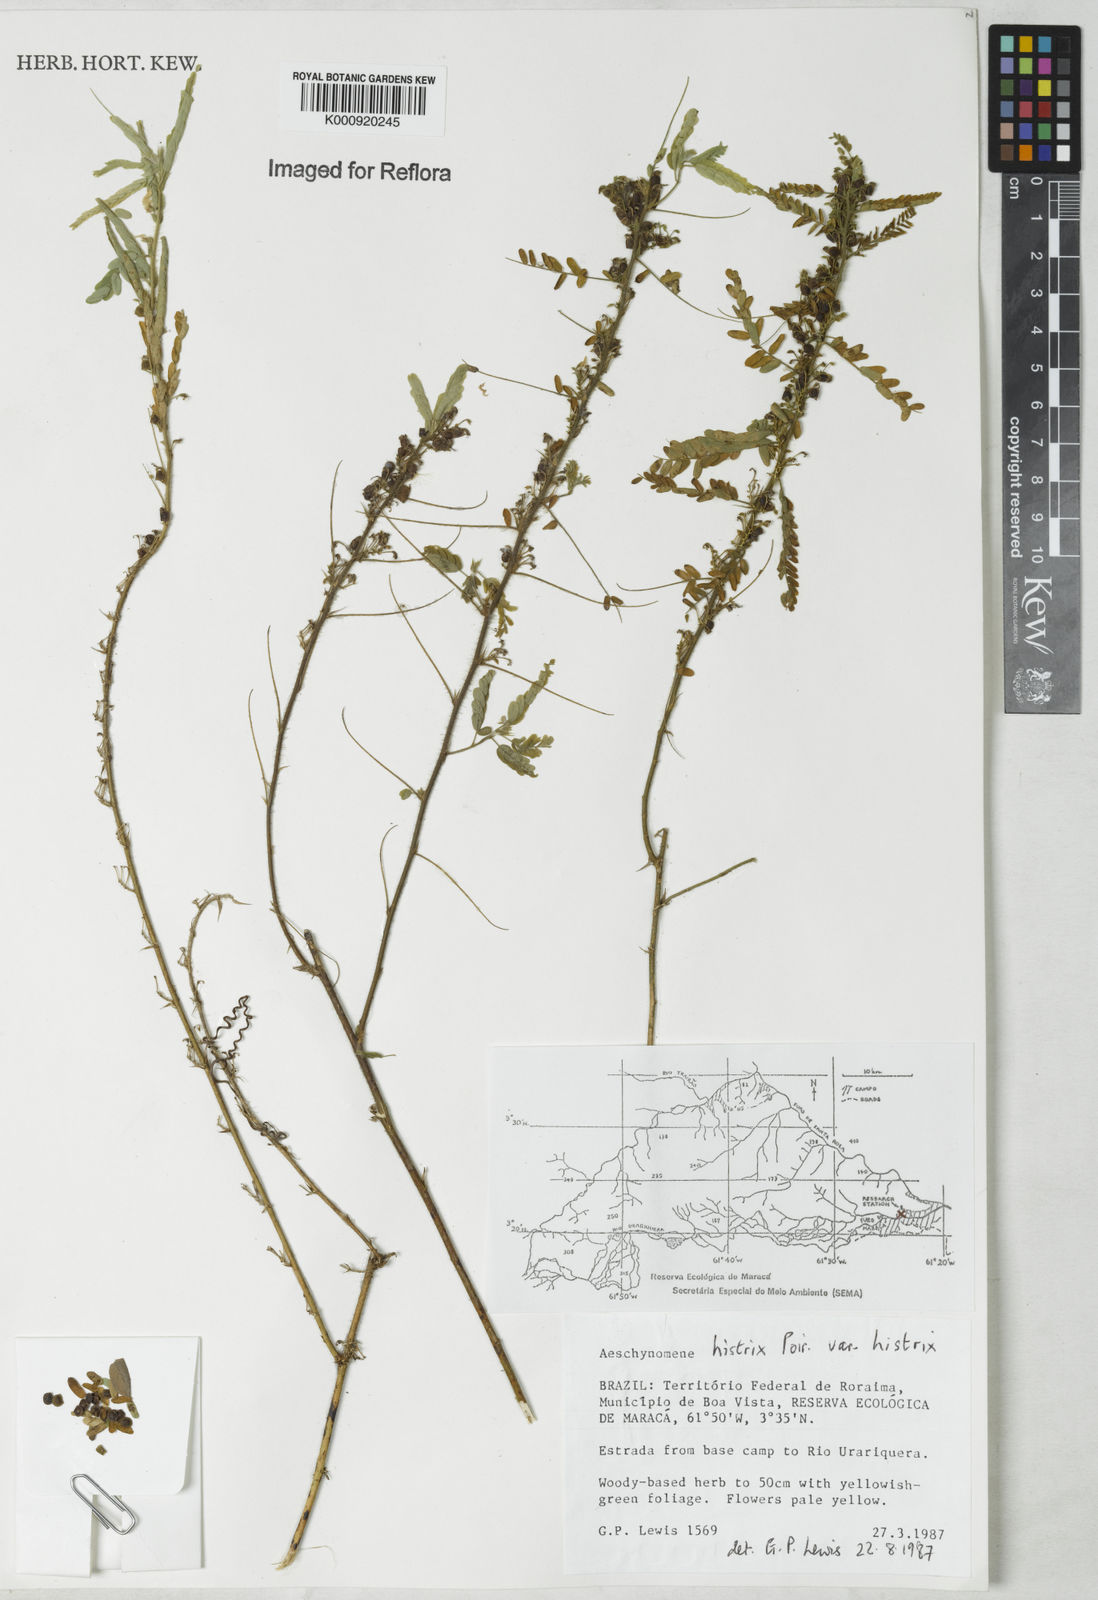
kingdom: Plantae
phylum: Tracheophyta
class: Magnoliopsida
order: Fabales
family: Fabaceae
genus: Ctenodon
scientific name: Ctenodon histrix
